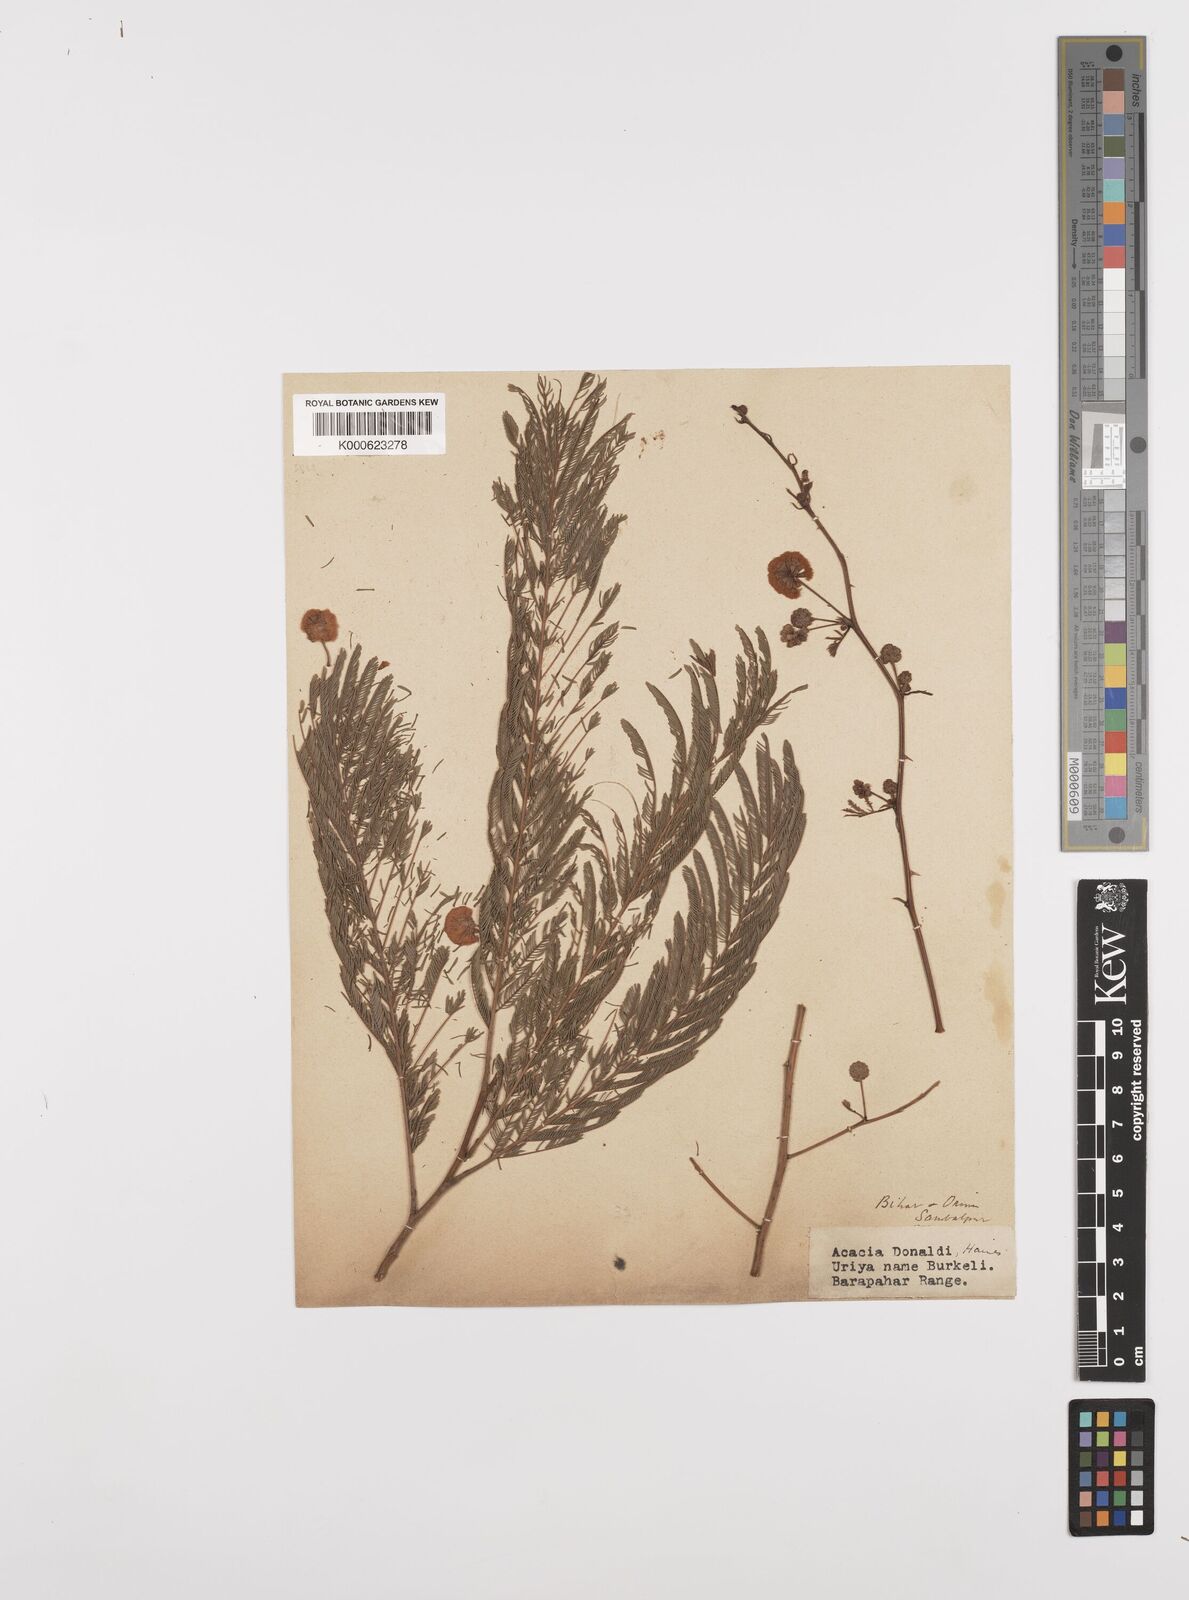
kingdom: Plantae
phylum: Tracheophyta
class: Magnoliopsida
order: Fabales
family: Fabaceae
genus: Senegalia
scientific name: Senegalia donaldi
